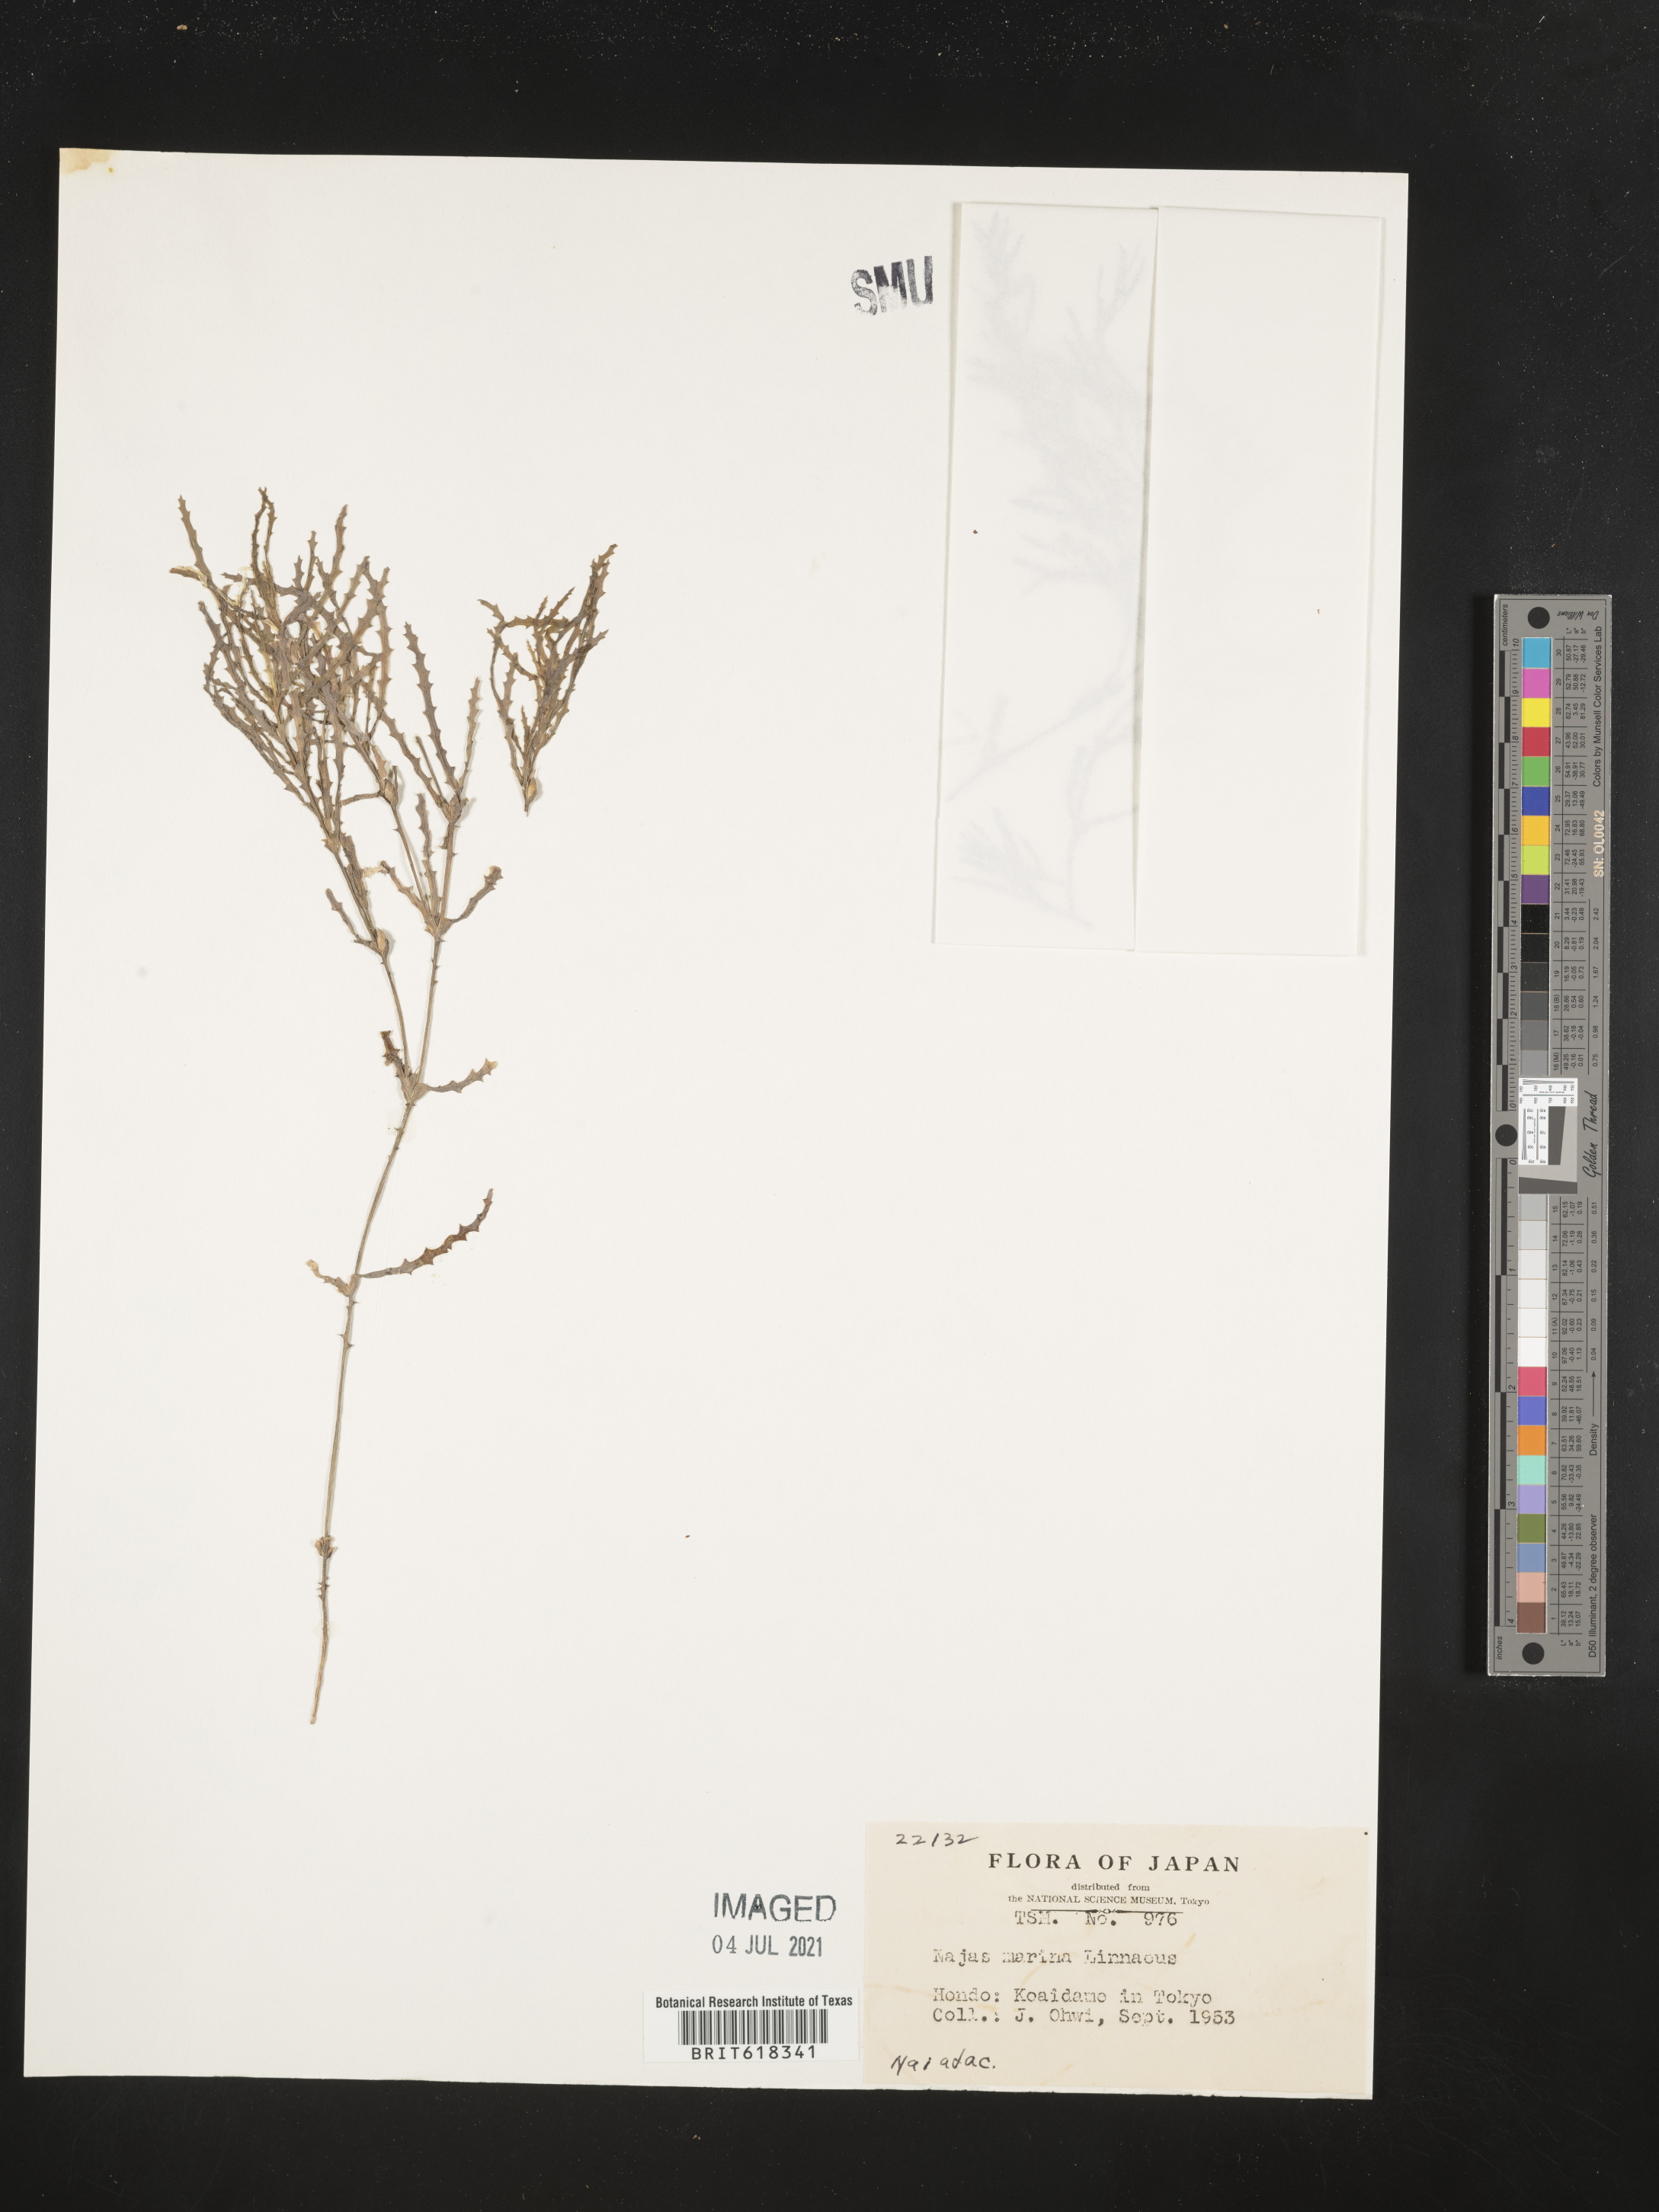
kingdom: Plantae
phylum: Tracheophyta
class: Liliopsida
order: Alismatales
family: Hydrocharitaceae
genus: Najas
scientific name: Najas marina
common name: Holly-leaved naiad
